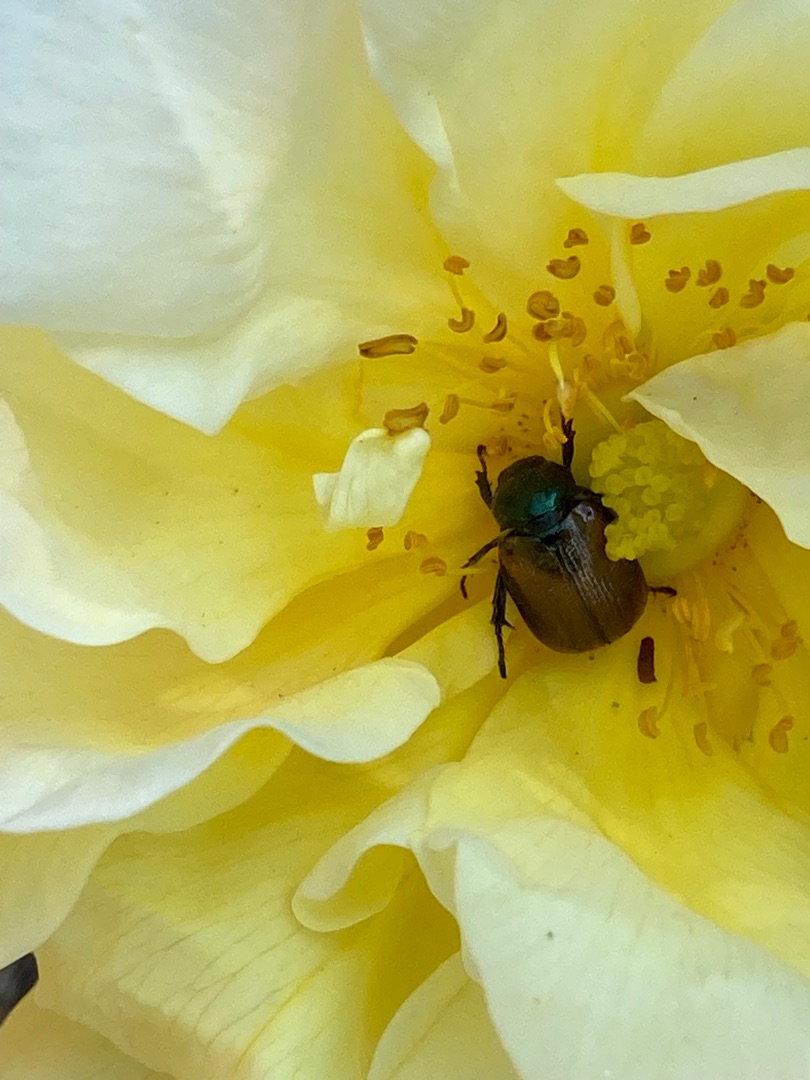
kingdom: Animalia
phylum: Arthropoda
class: Insecta
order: Coleoptera
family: Scarabaeidae
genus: Phyllopertha
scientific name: Phyllopertha horticola
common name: Gåsebille
